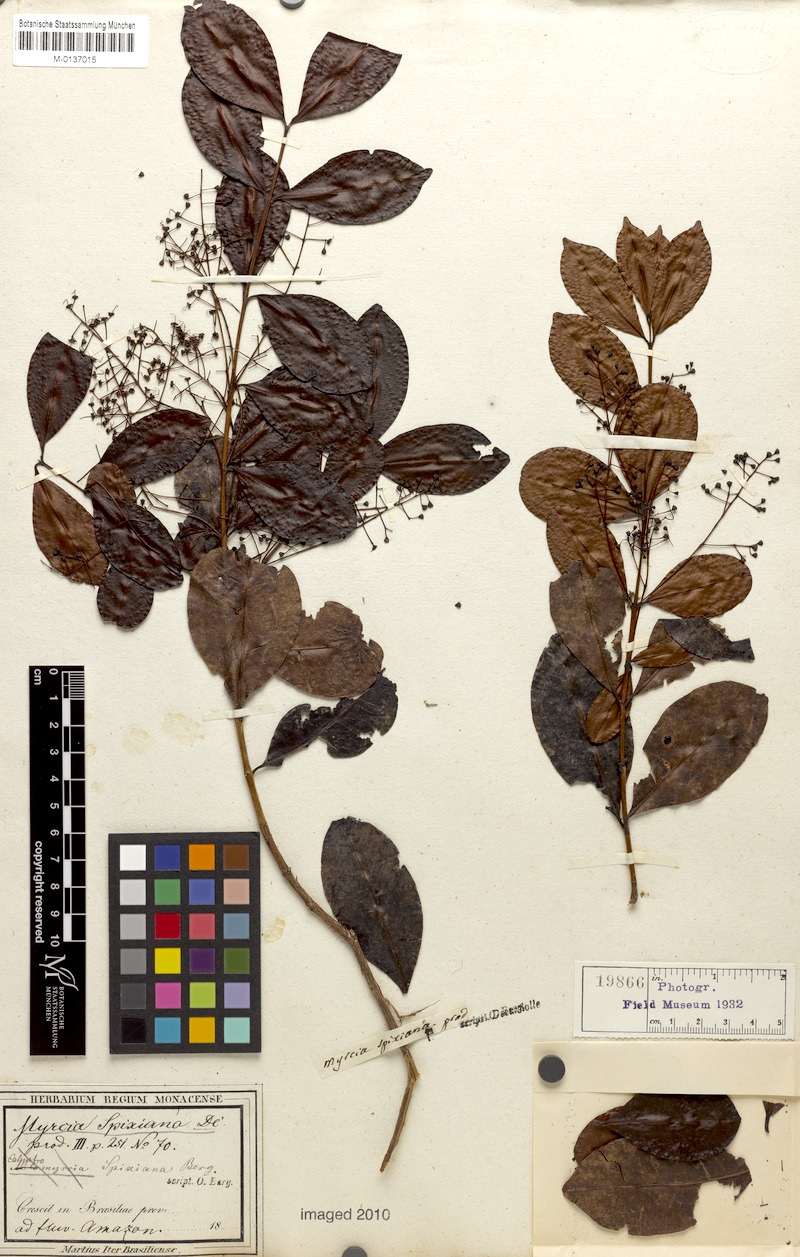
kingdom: Plantae
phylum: Tracheophyta
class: Magnoliopsida
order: Myrtales
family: Myrtaceae
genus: Myrcia
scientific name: Myrcia guianensis
